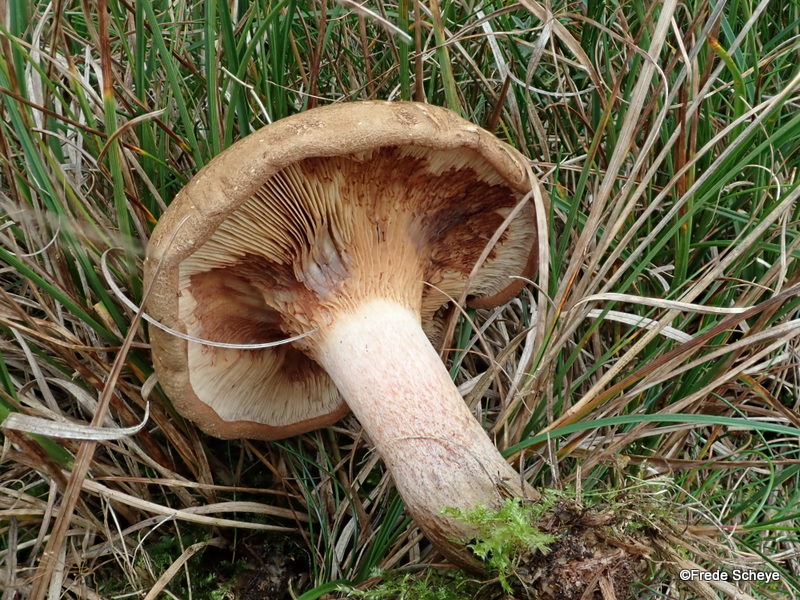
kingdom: Fungi
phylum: Basidiomycota
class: Agaricomycetes
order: Boletales
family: Paxillaceae
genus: Paxillus
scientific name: Paxillus involutus
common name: almindelig netbladhat
